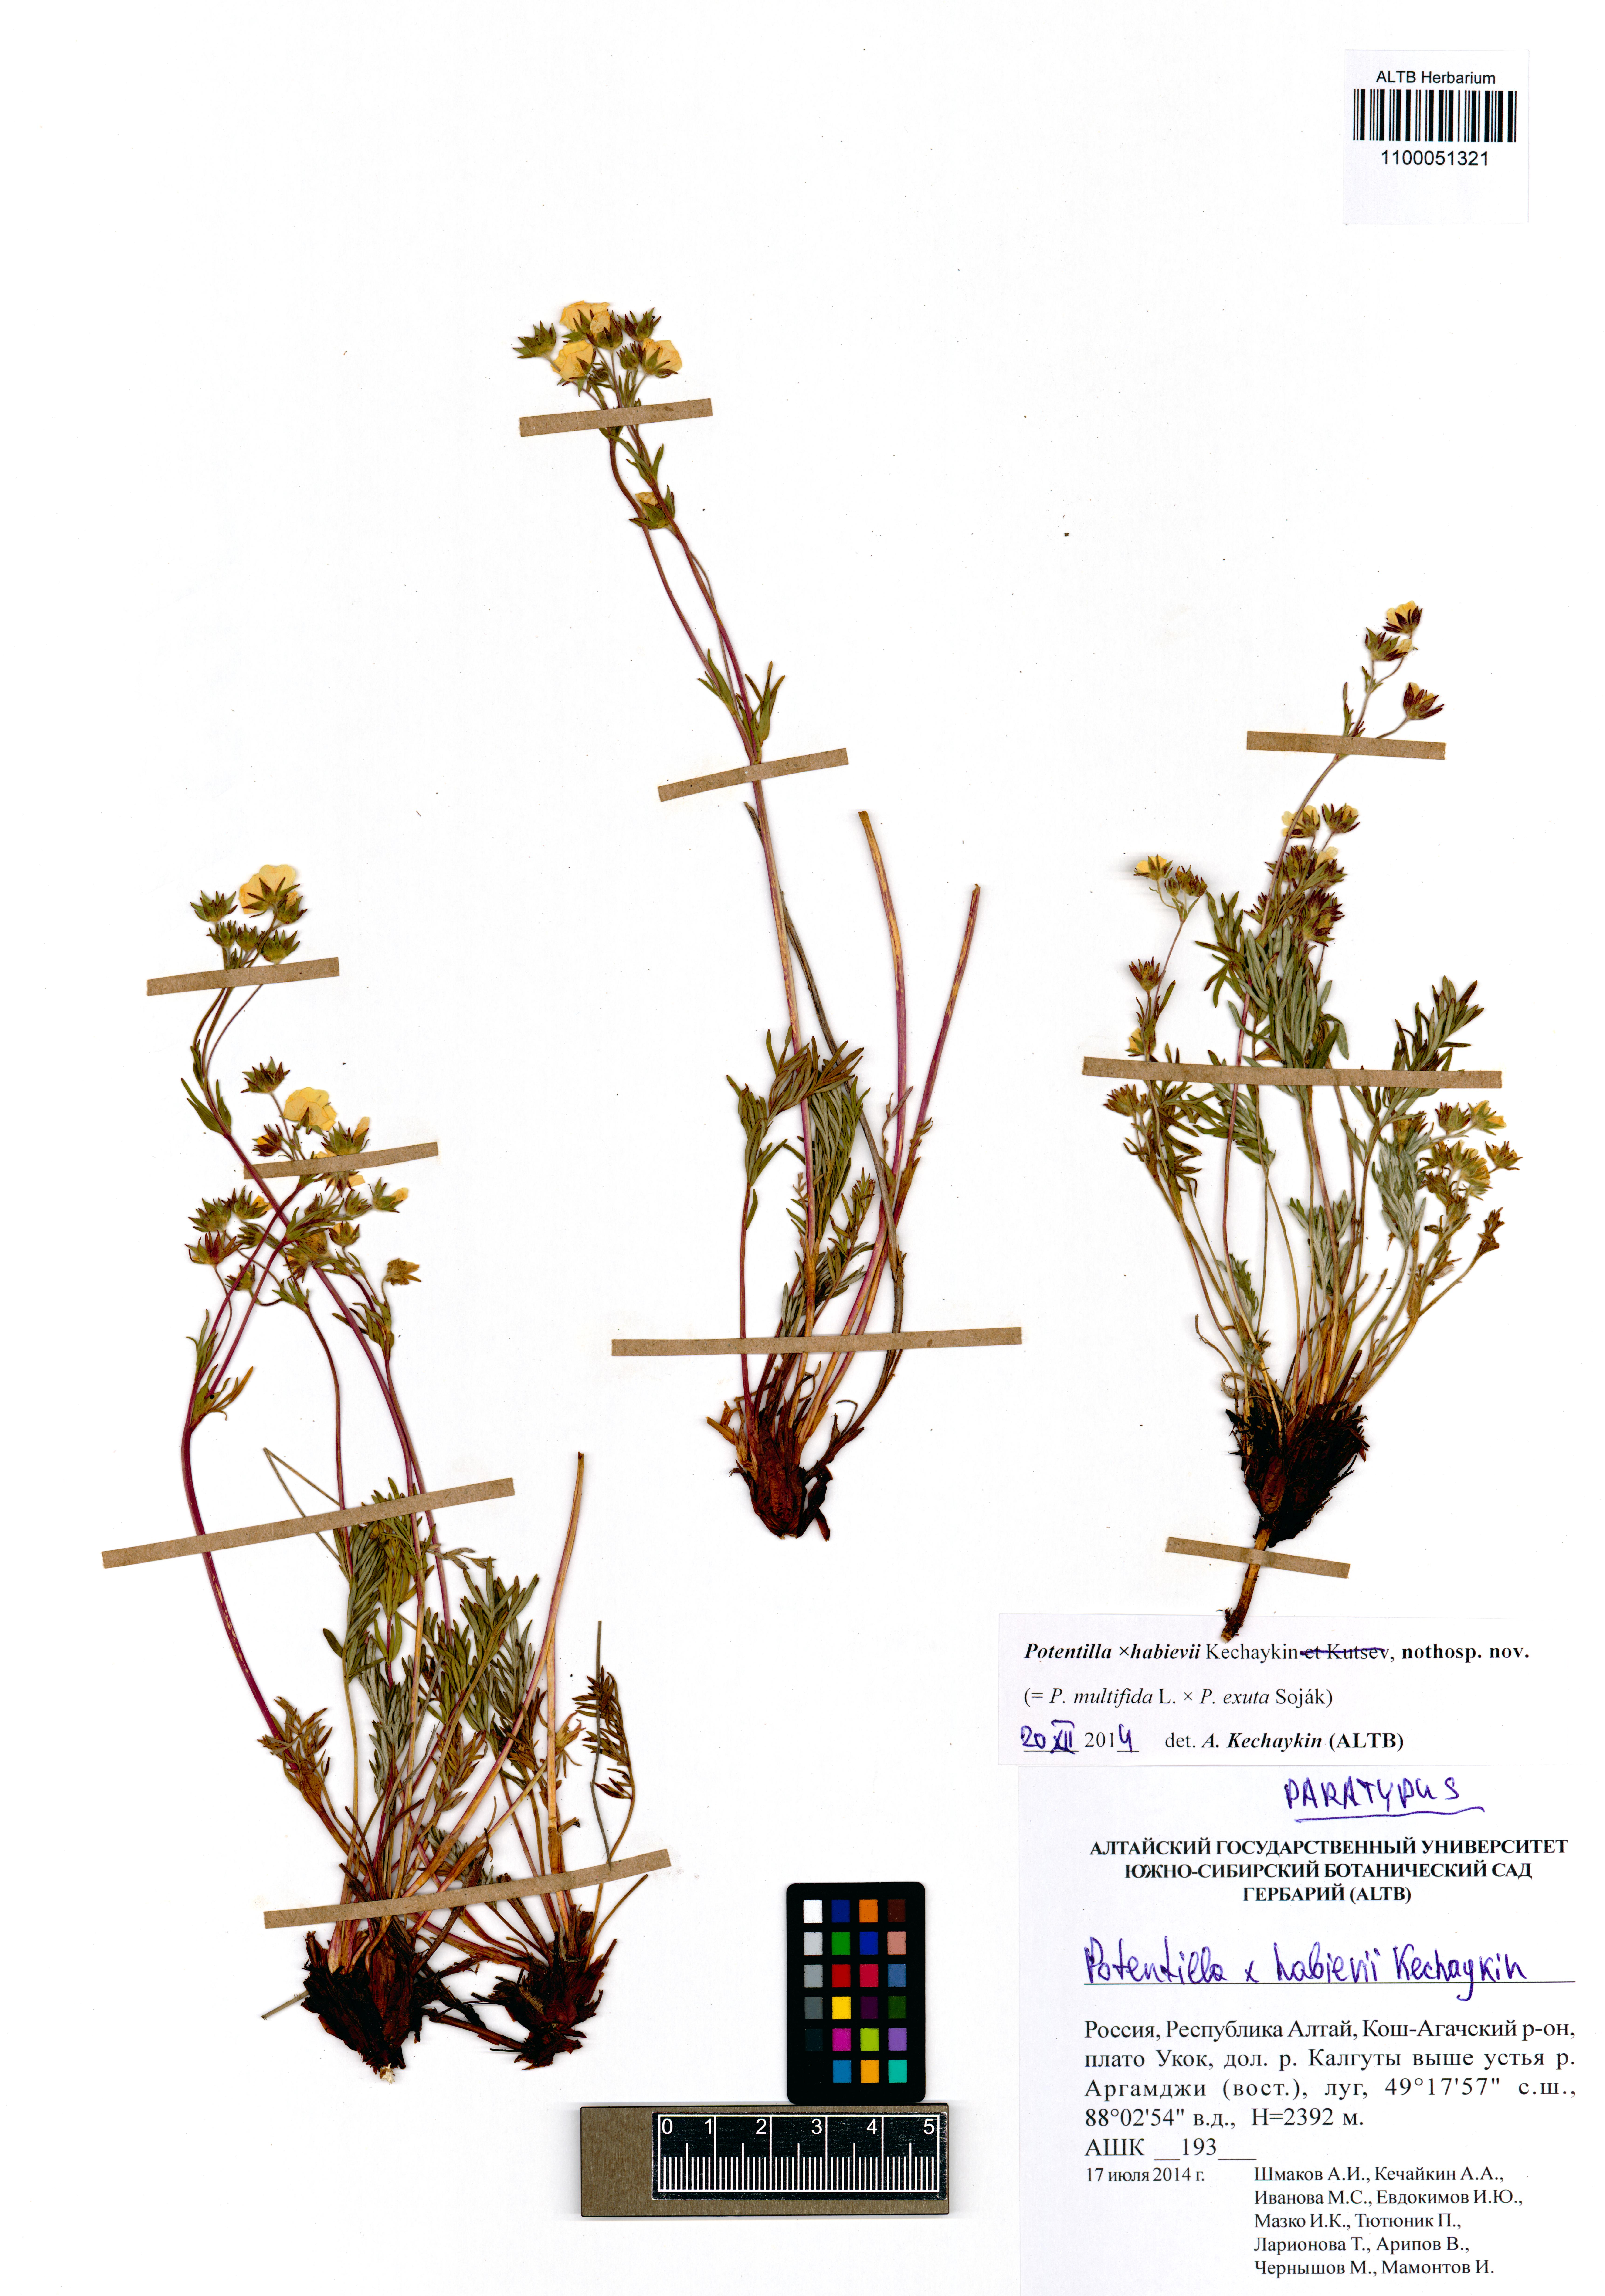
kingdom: Plantae
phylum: Tracheophyta
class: Magnoliopsida
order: Rosales
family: Rosaceae
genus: Potentilla
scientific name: Potentilla habievii
